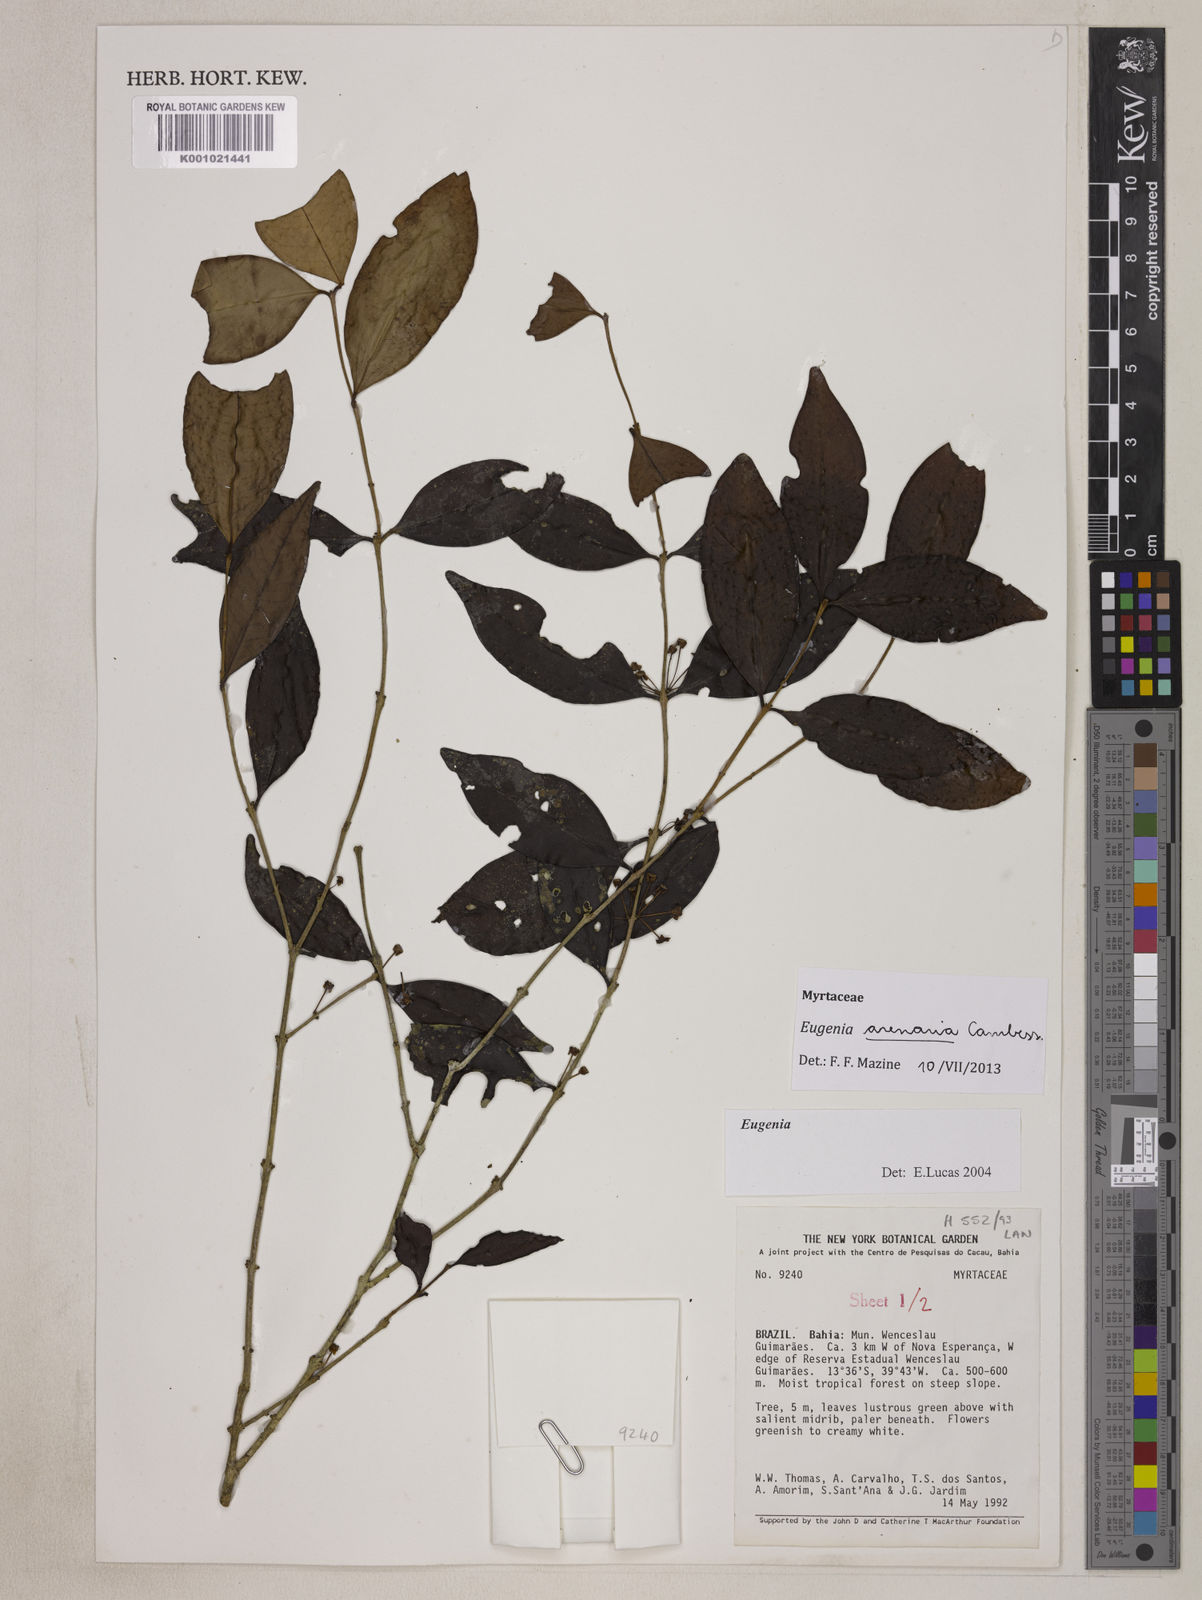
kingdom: Plantae
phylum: Tracheophyta
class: Magnoliopsida
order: Myrtales
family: Myrtaceae
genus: Eugenia
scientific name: Eugenia arenaria
